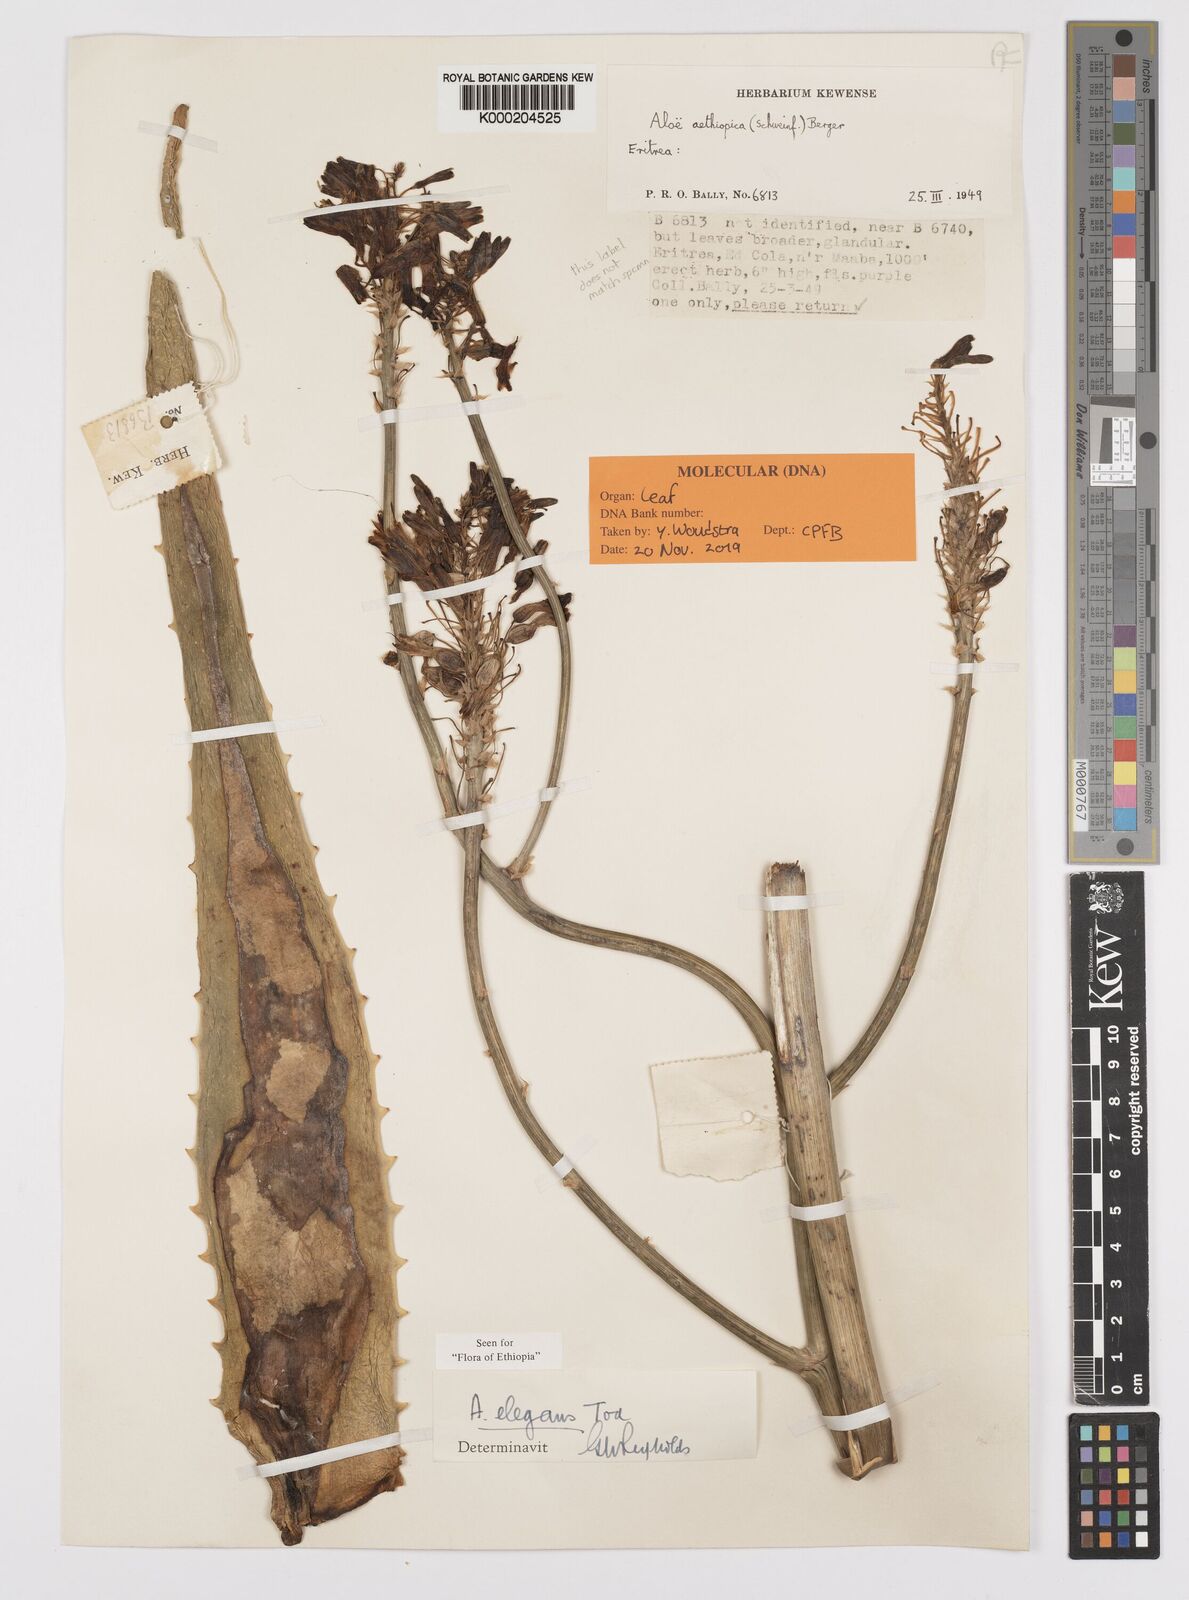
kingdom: Plantae
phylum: Tracheophyta
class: Liliopsida
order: Asparagales
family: Asphodelaceae
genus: Aloe
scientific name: Aloe elegans
